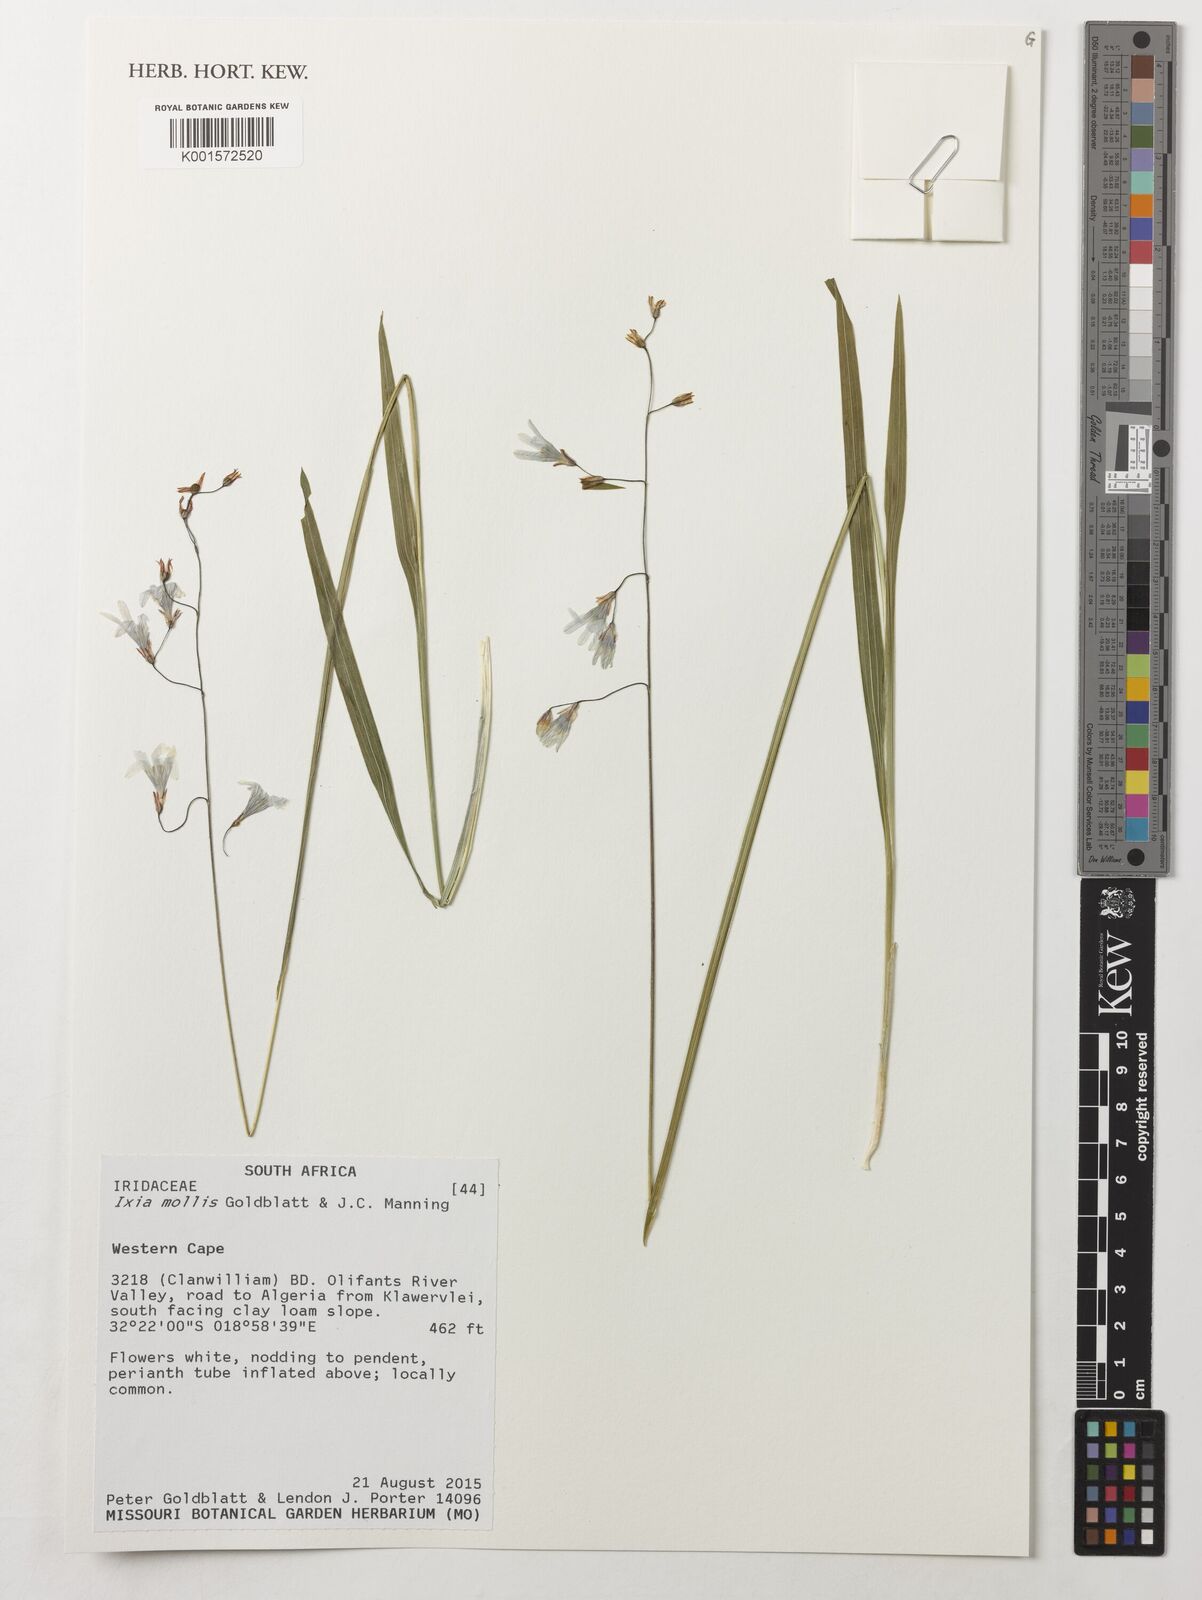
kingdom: Plantae
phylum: Tracheophyta
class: Liliopsida
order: Asparagales
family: Iridaceae
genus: Ixia
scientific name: Ixia mollis
